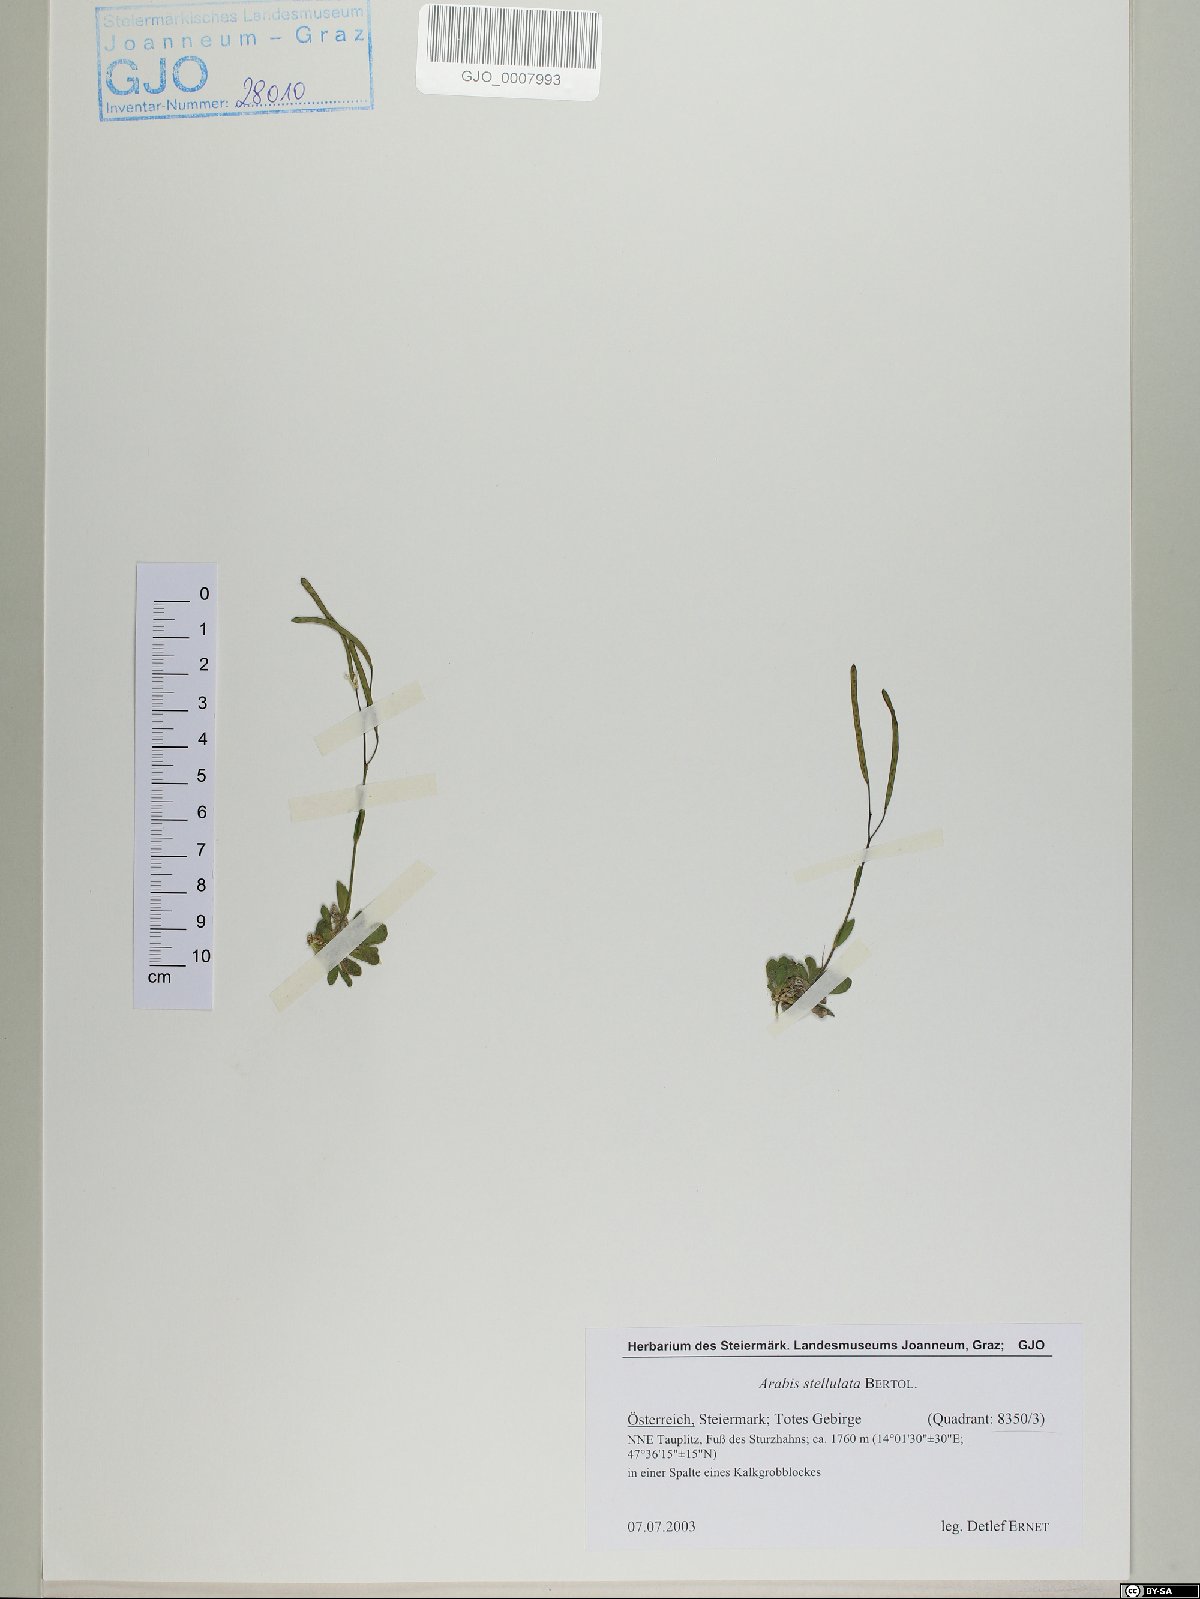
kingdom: Plantae
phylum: Tracheophyta
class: Magnoliopsida
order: Brassicales
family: Brassicaceae
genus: Arabis
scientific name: Arabis stellulata
